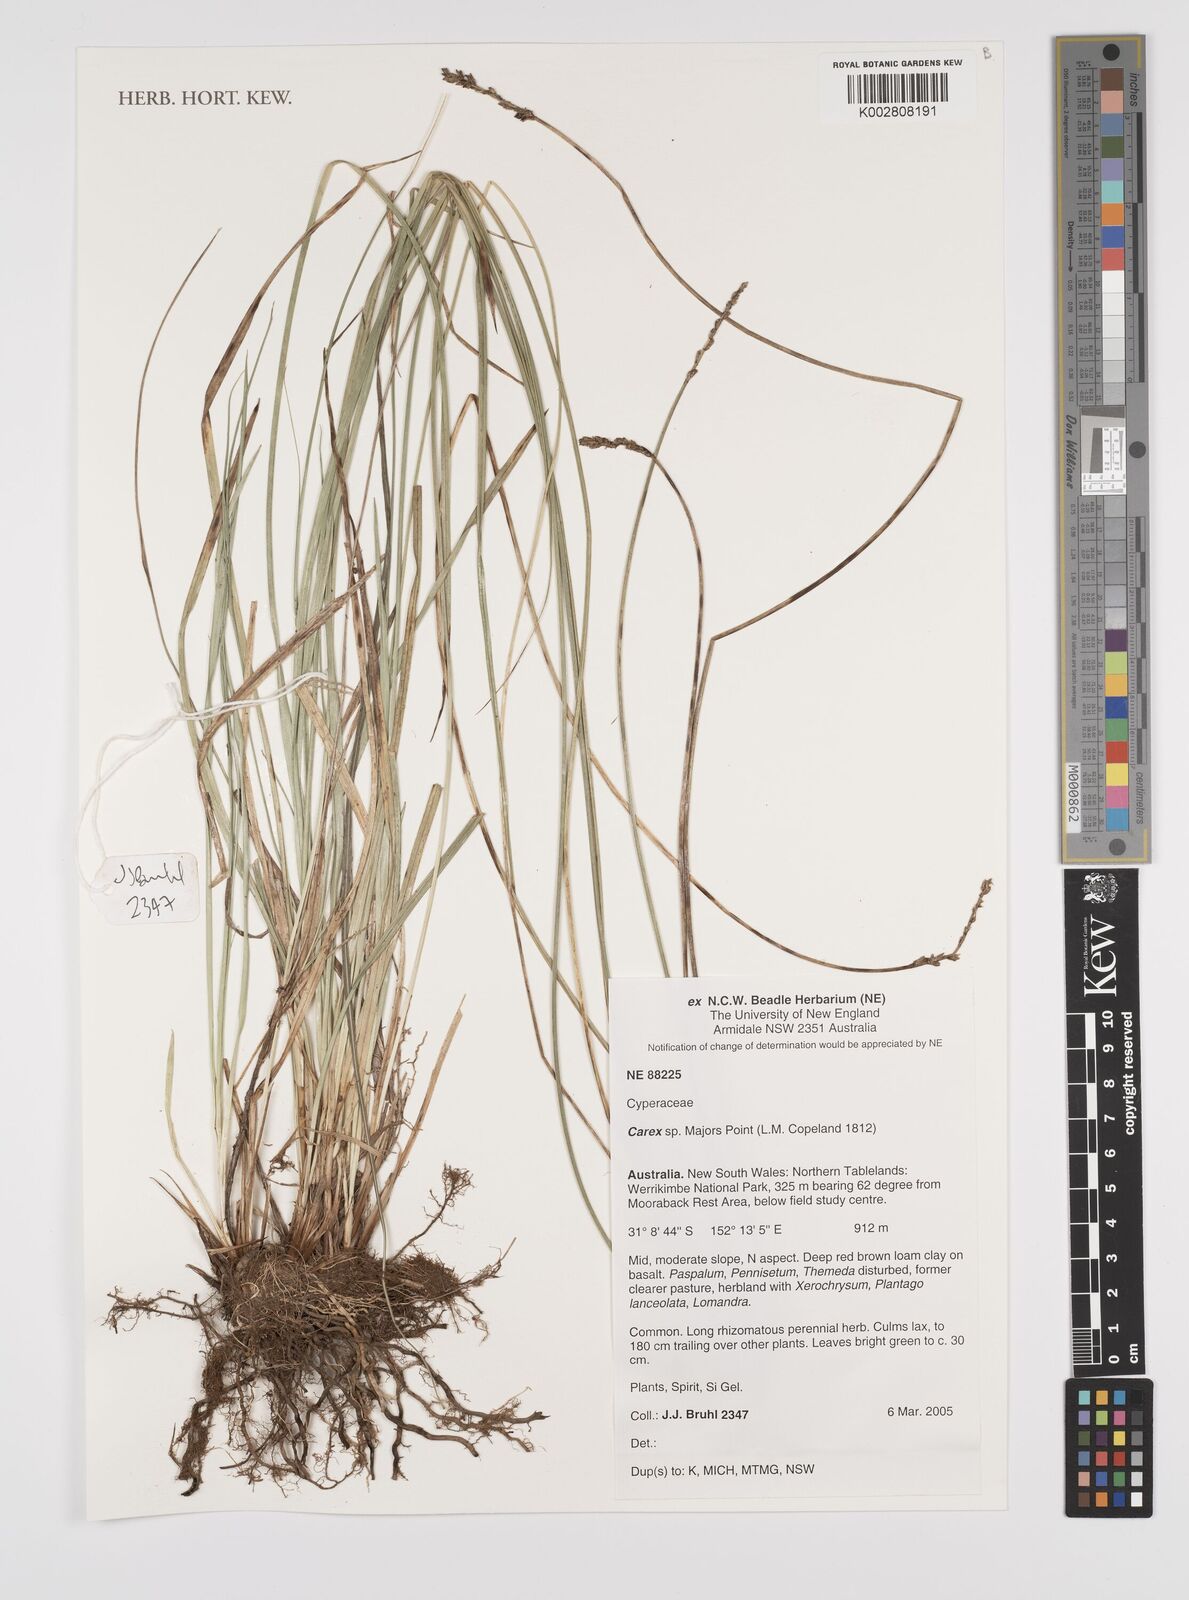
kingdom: Plantae
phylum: Tracheophyta
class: Liliopsida
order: Poales
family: Cyperaceae
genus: Carex
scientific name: Carex
